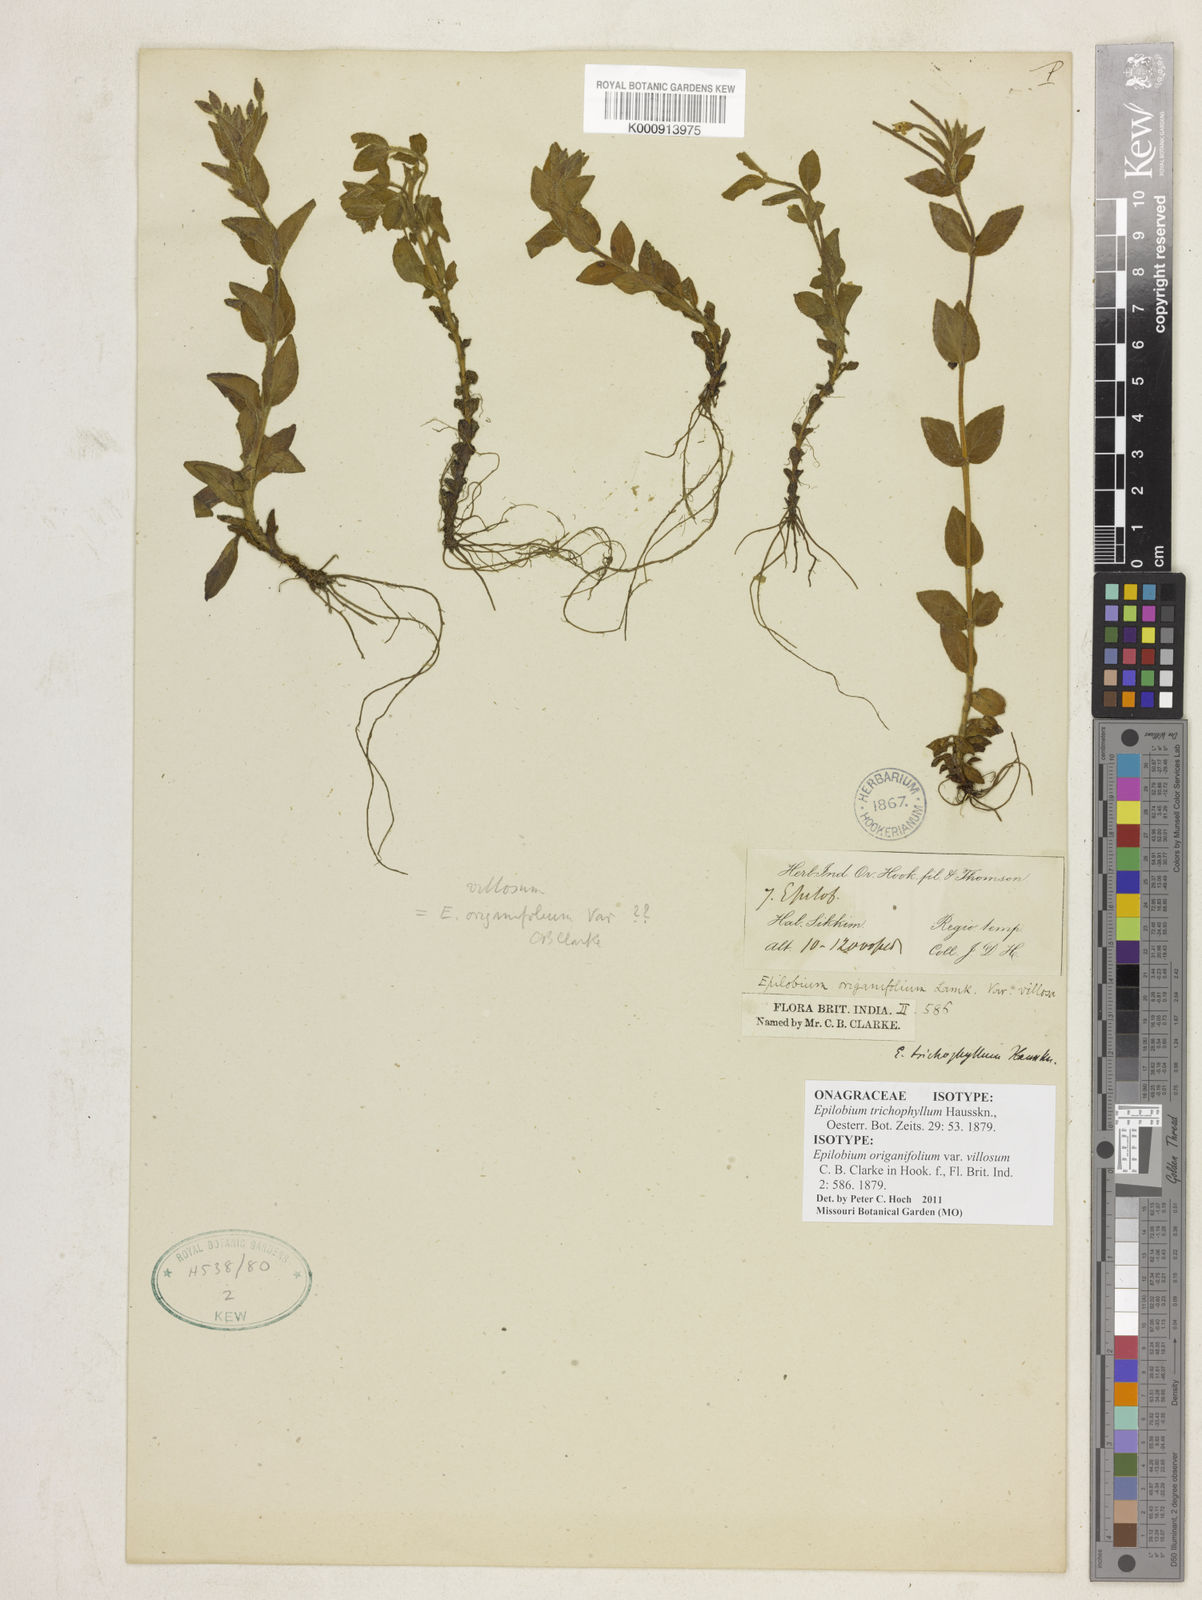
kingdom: Plantae
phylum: Tracheophyta
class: Magnoliopsida
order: Myrtales
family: Onagraceae
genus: Epilobium
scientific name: Epilobium trichophyllum
